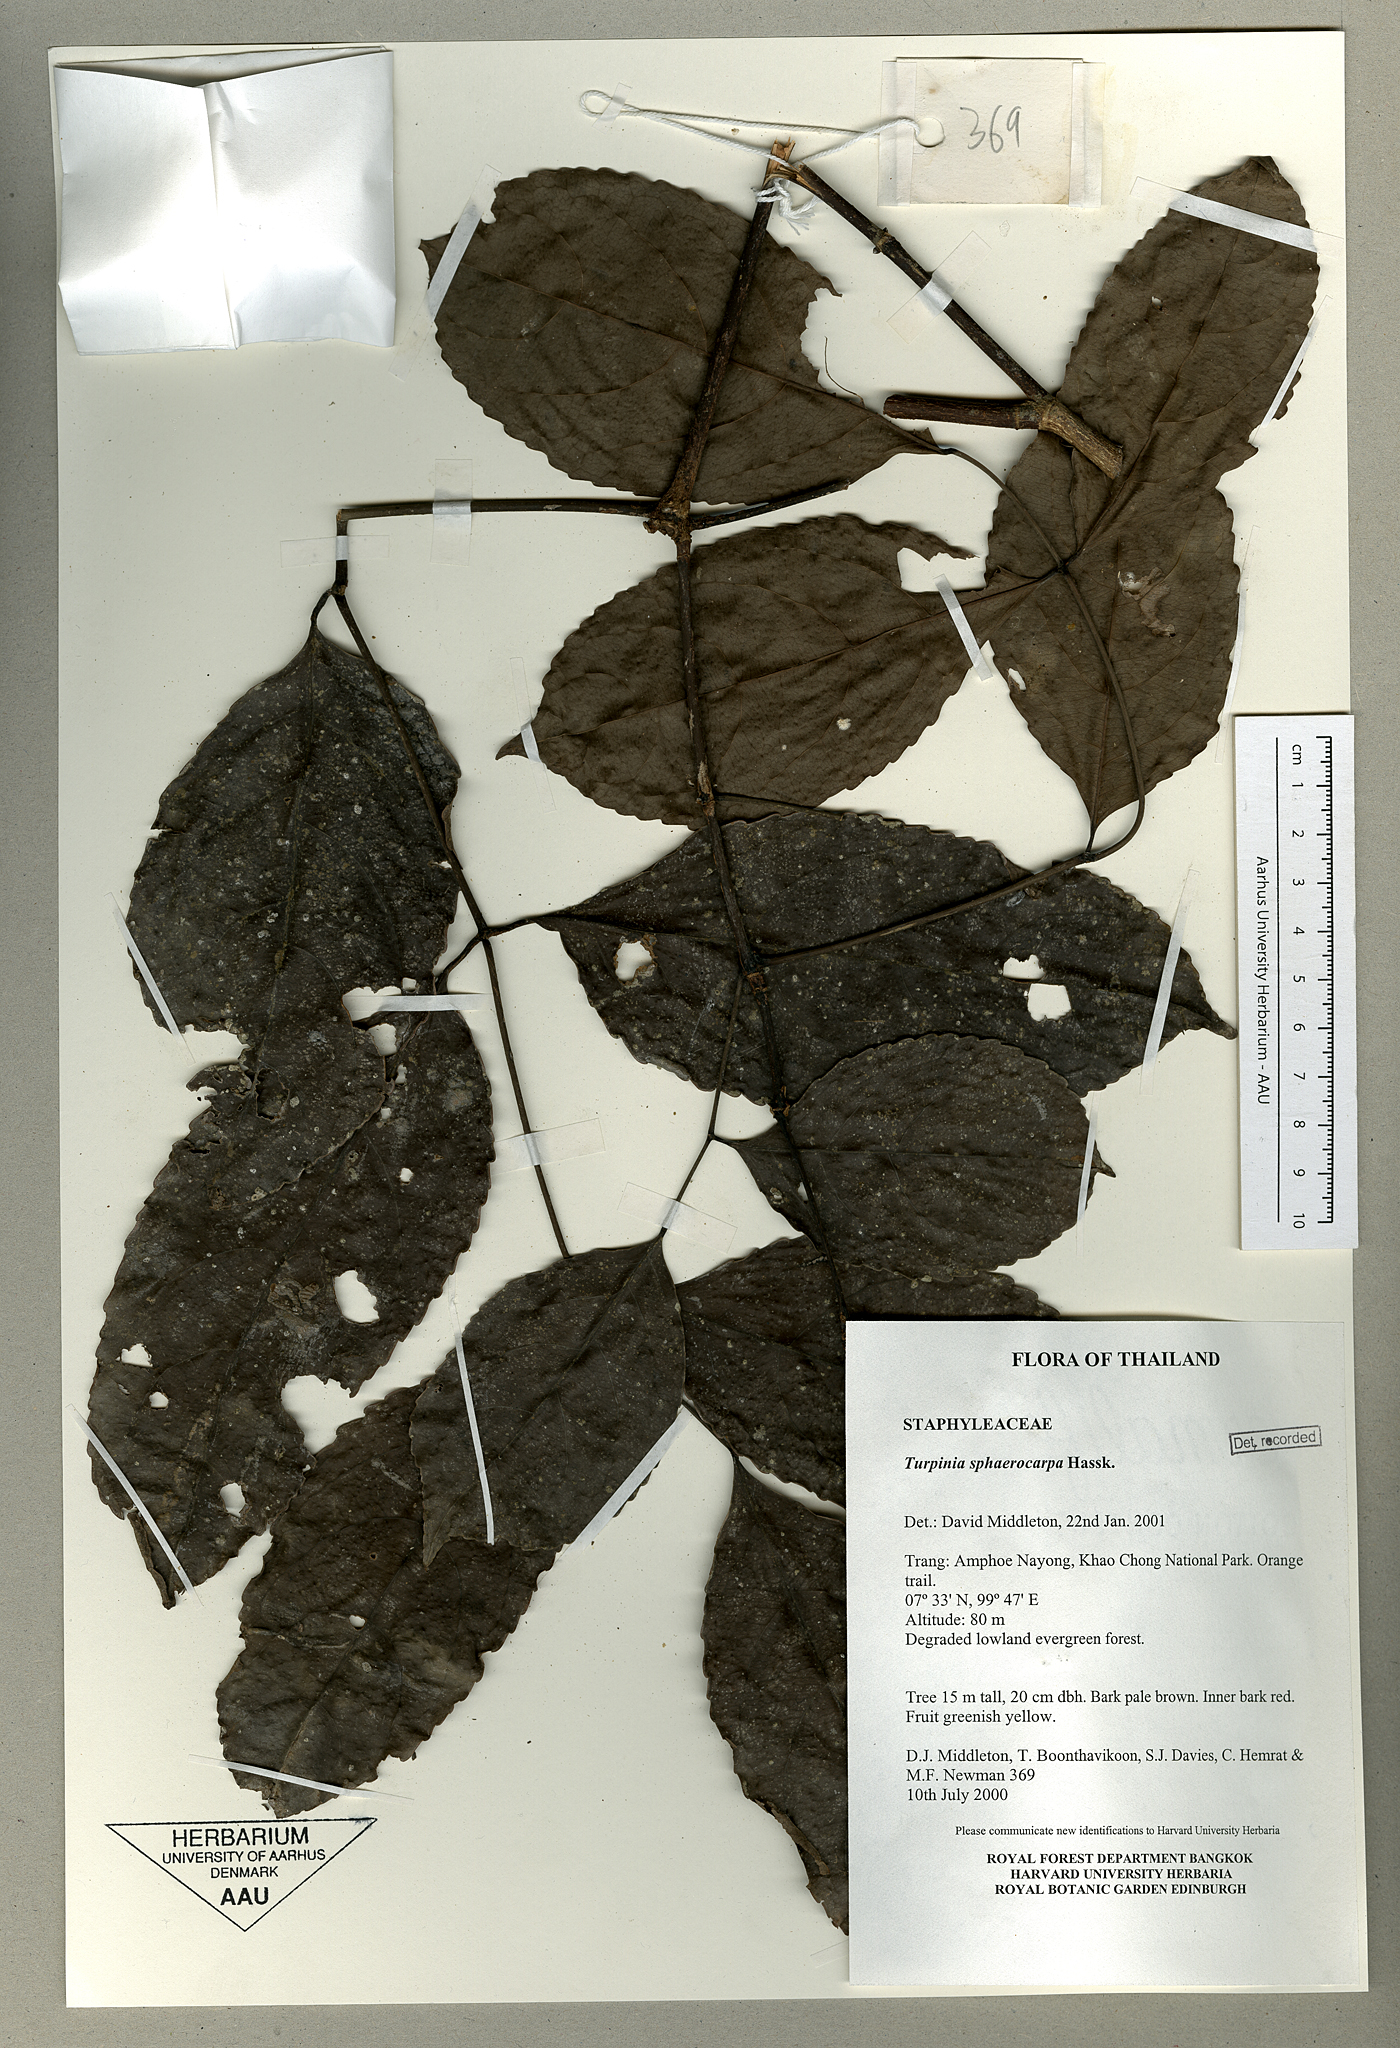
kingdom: Plantae
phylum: Tracheophyta
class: Magnoliopsida
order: Crossosomatales
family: Staphyleaceae
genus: Dalrympelea
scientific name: Dalrympelea sphaerocarpa
